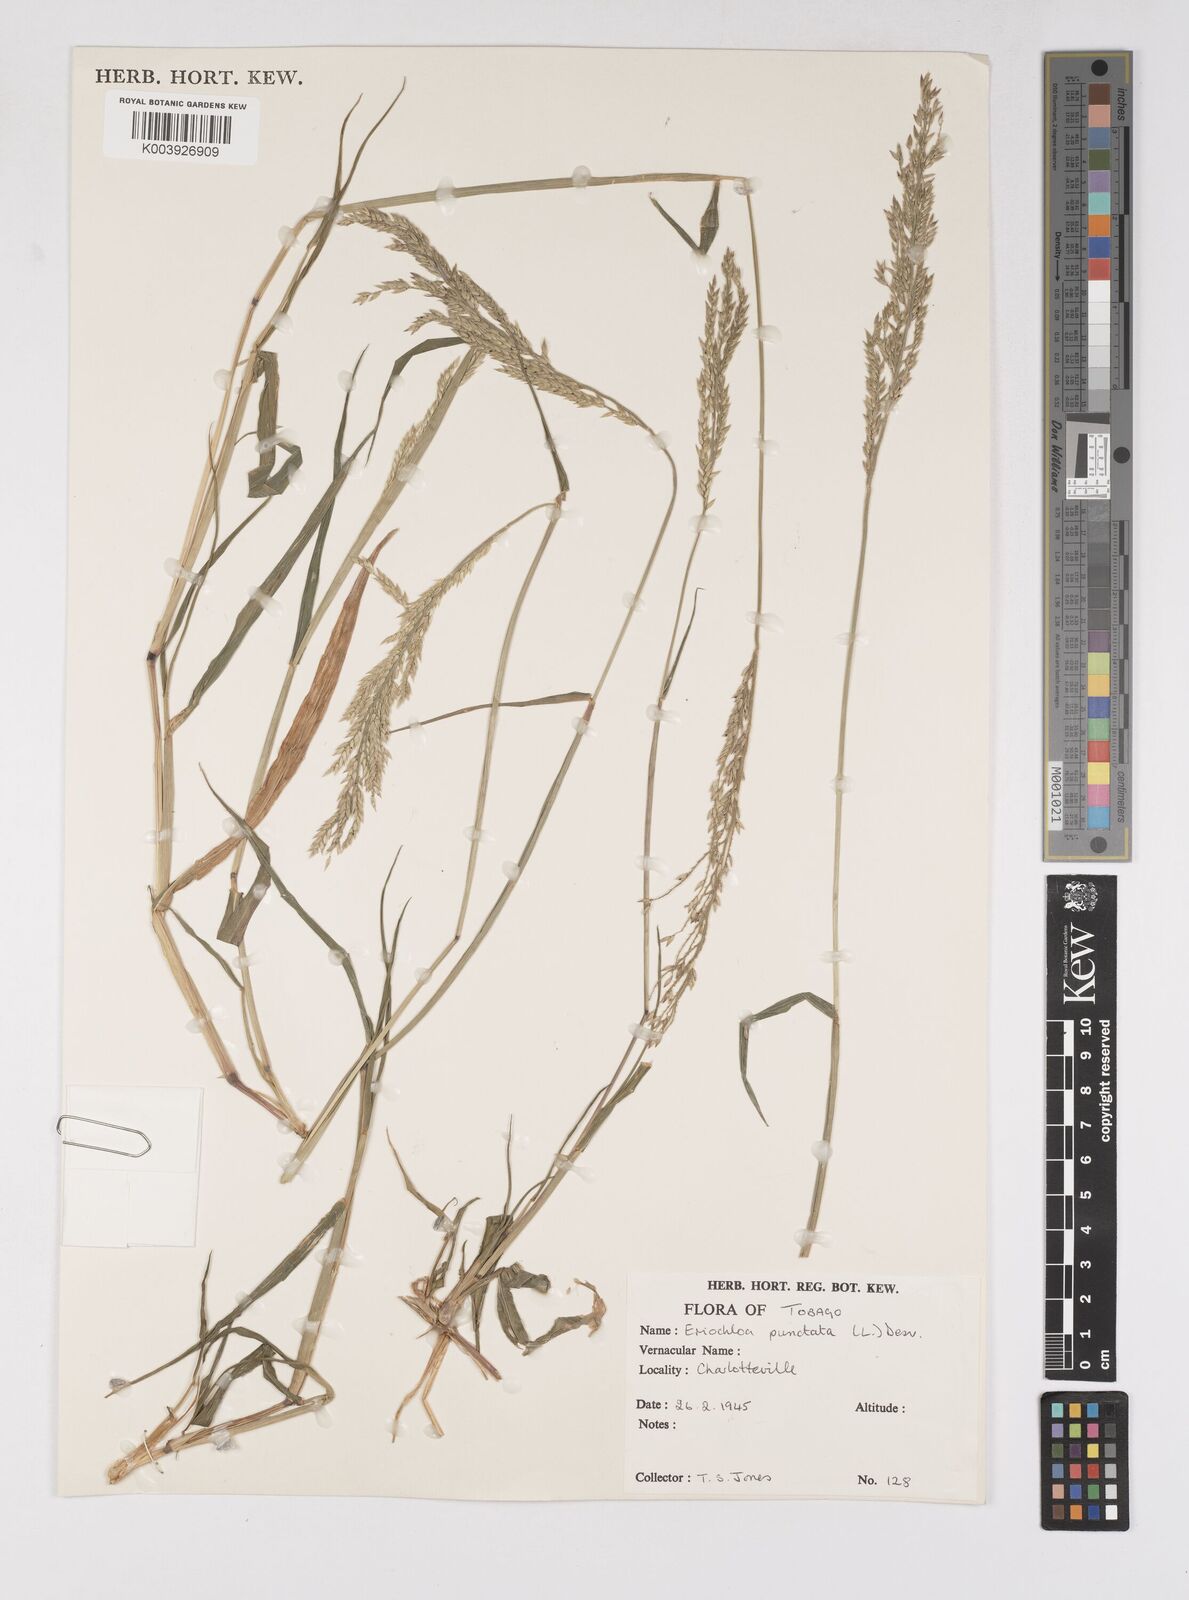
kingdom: Plantae
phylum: Tracheophyta
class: Liliopsida
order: Poales
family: Poaceae
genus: Eriochloa
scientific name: Eriochloa punctata
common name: Louisiana cupgrass
